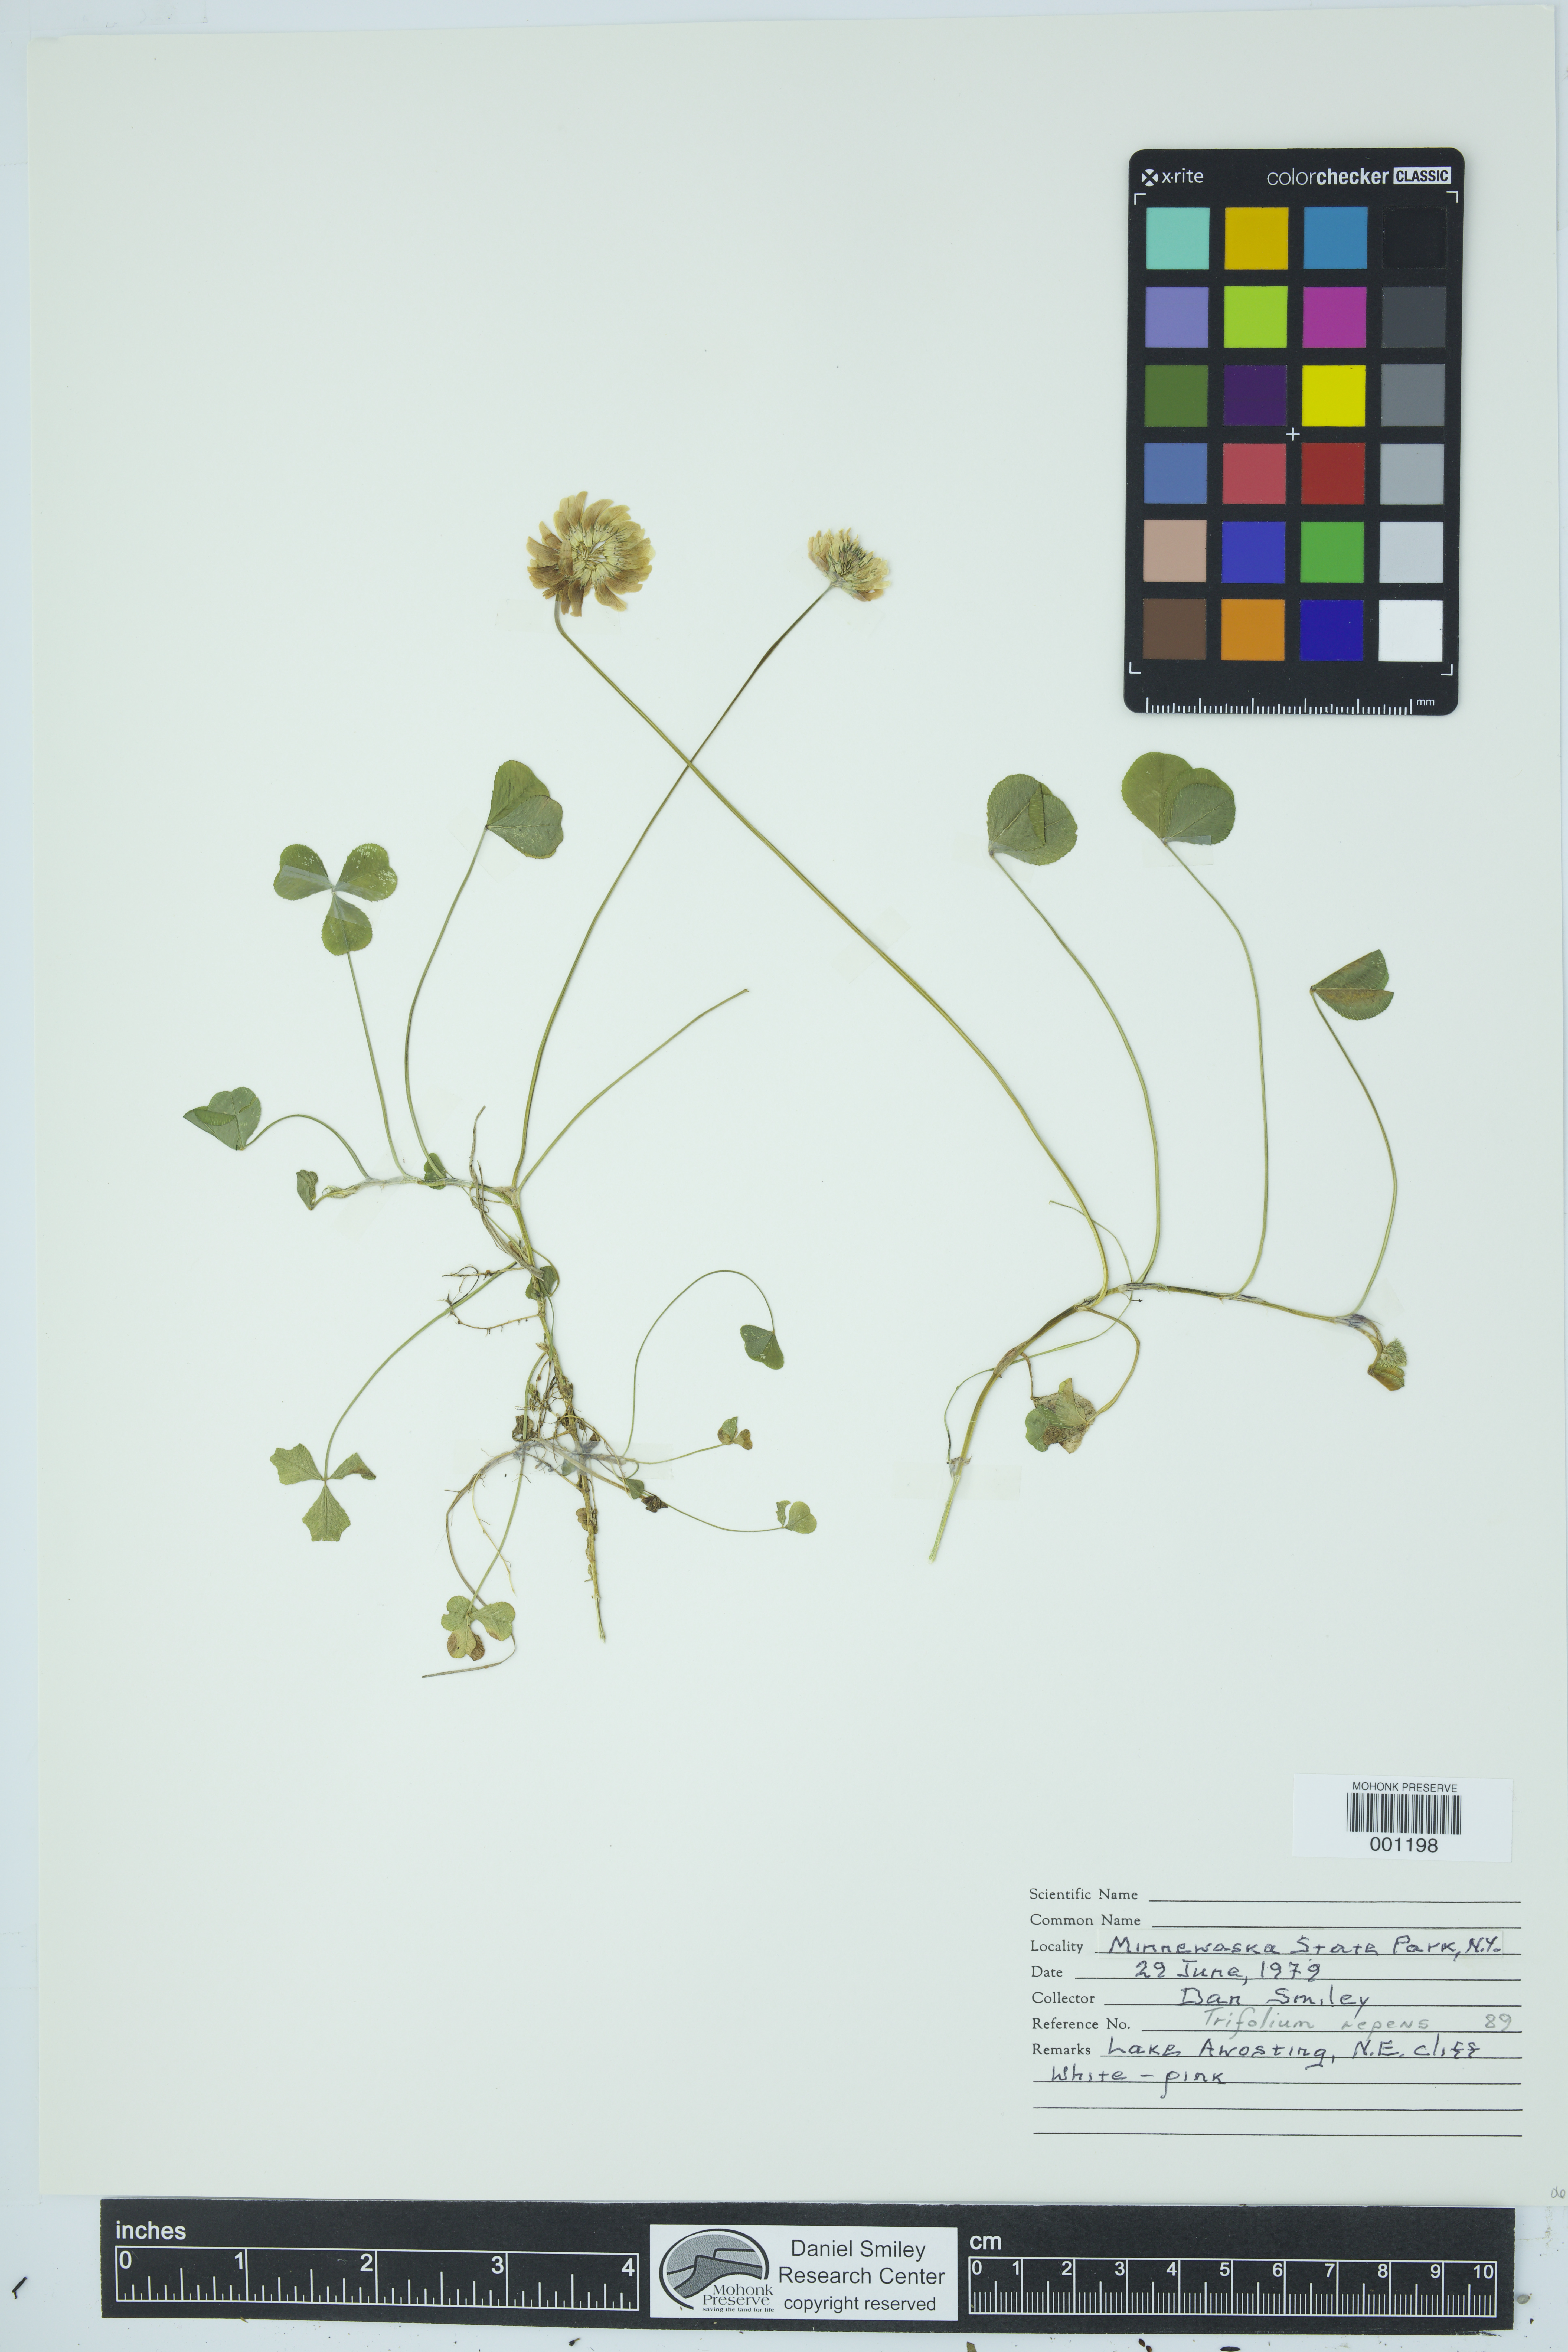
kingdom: Plantae
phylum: Tracheophyta
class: Magnoliopsida
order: Fabales
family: Fabaceae
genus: Trifolium
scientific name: Trifolium repens
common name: White clover
